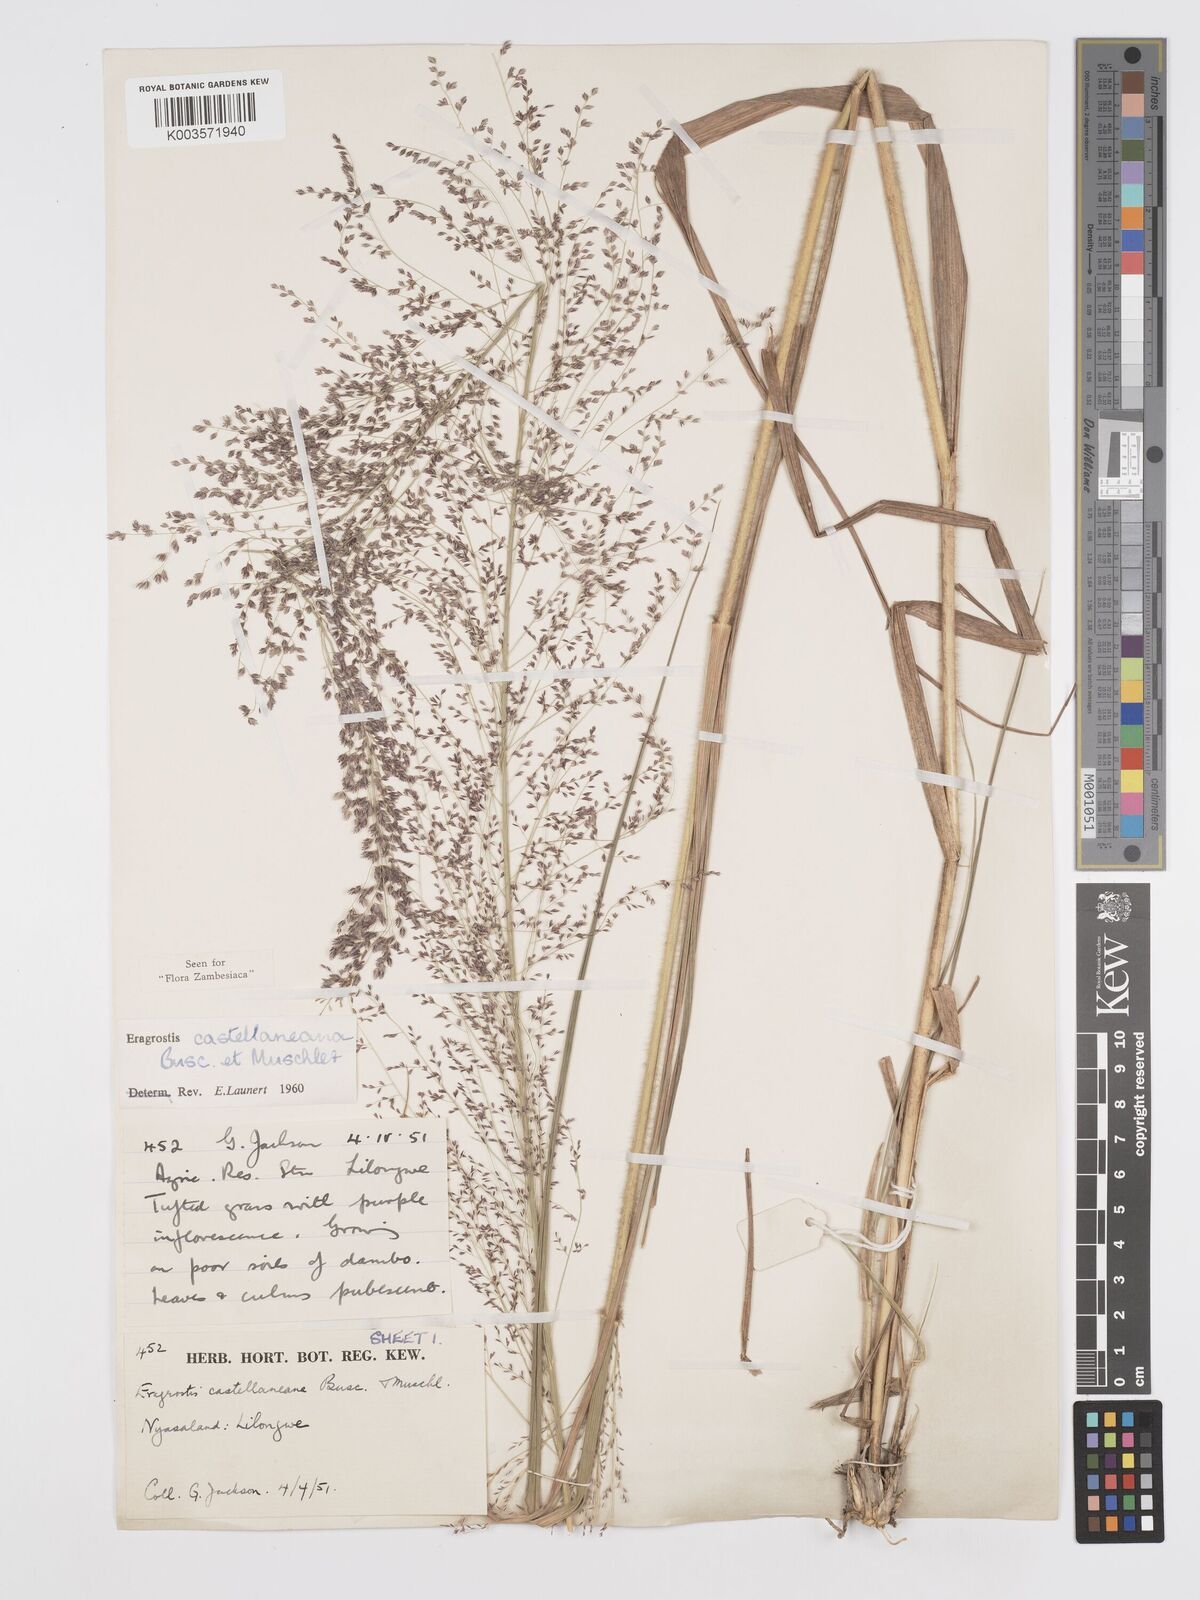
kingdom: Plantae
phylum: Tracheophyta
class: Liliopsida
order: Poales
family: Poaceae
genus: Eragrostis
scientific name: Eragrostis castellaneana
